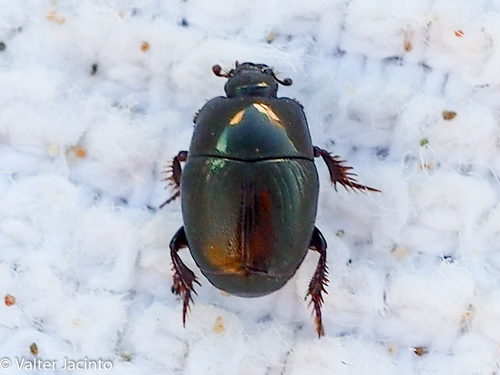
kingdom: Animalia
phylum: Arthropoda
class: Insecta
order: Coleoptera
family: Histeridae
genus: Saprinus
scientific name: Saprinus
